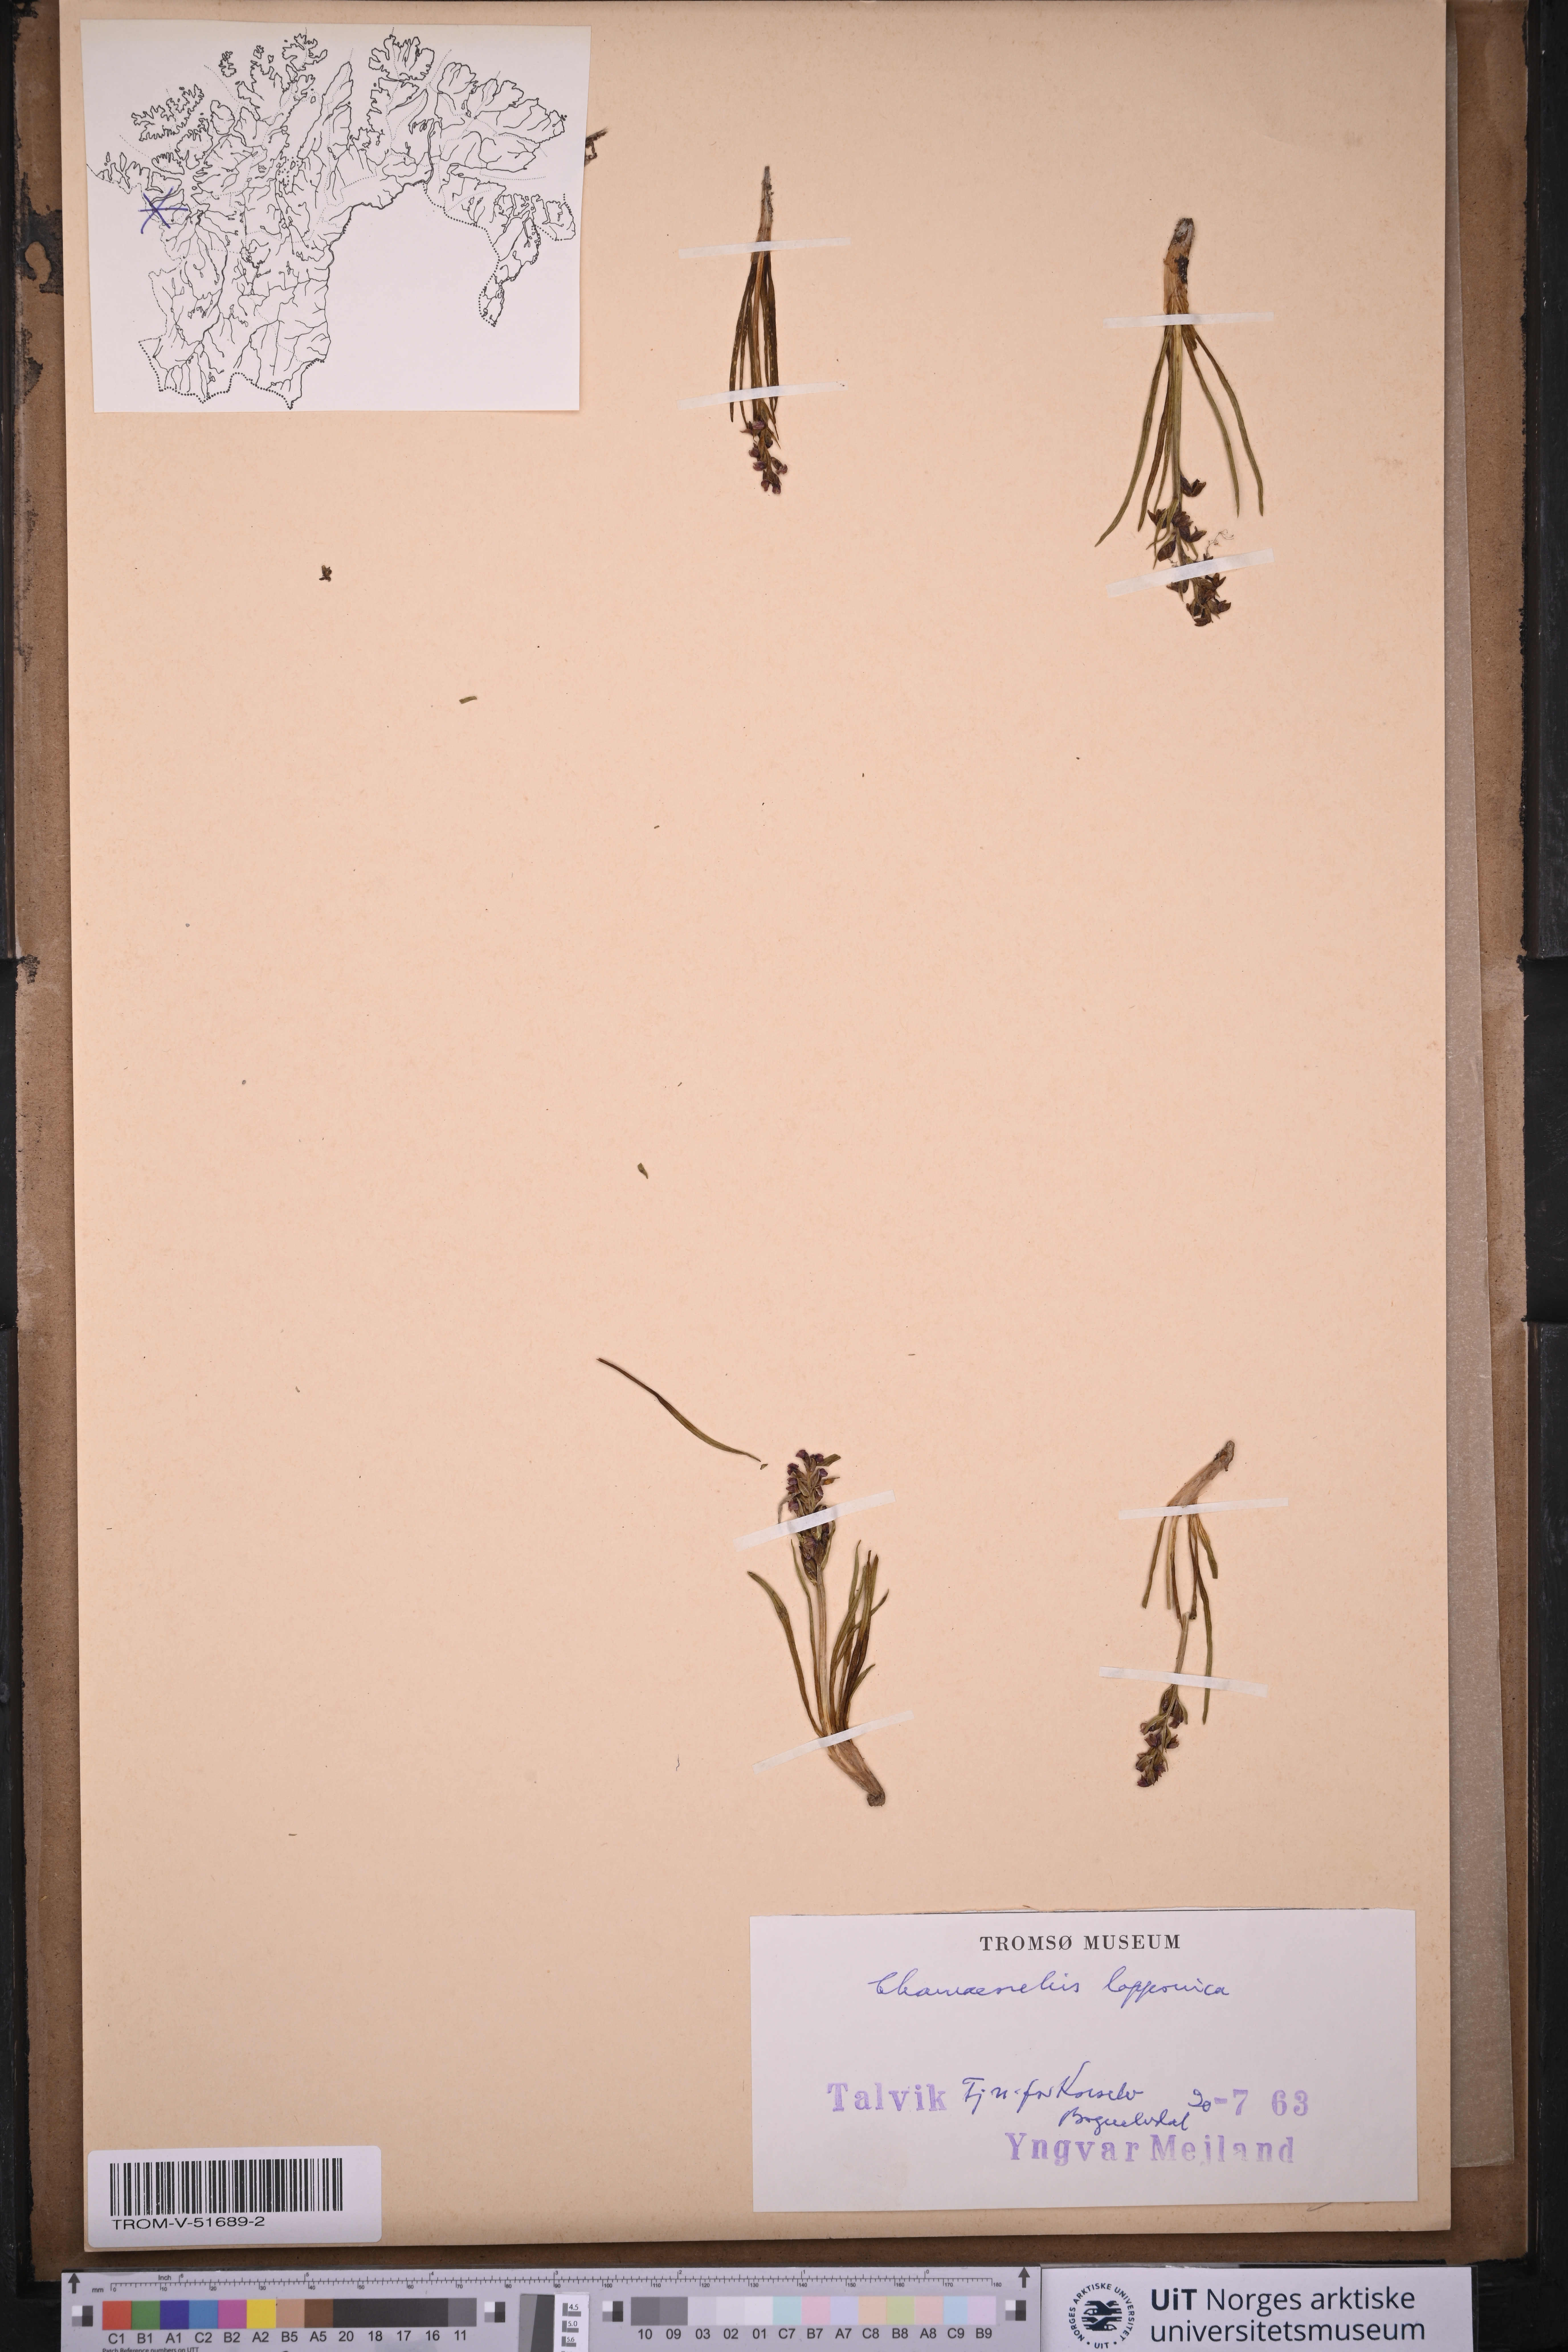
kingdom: Plantae
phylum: Tracheophyta
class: Liliopsida
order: Asparagales
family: Orchidaceae
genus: Chamorchis
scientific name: Chamorchis alpina
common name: Alpine chamorchis
